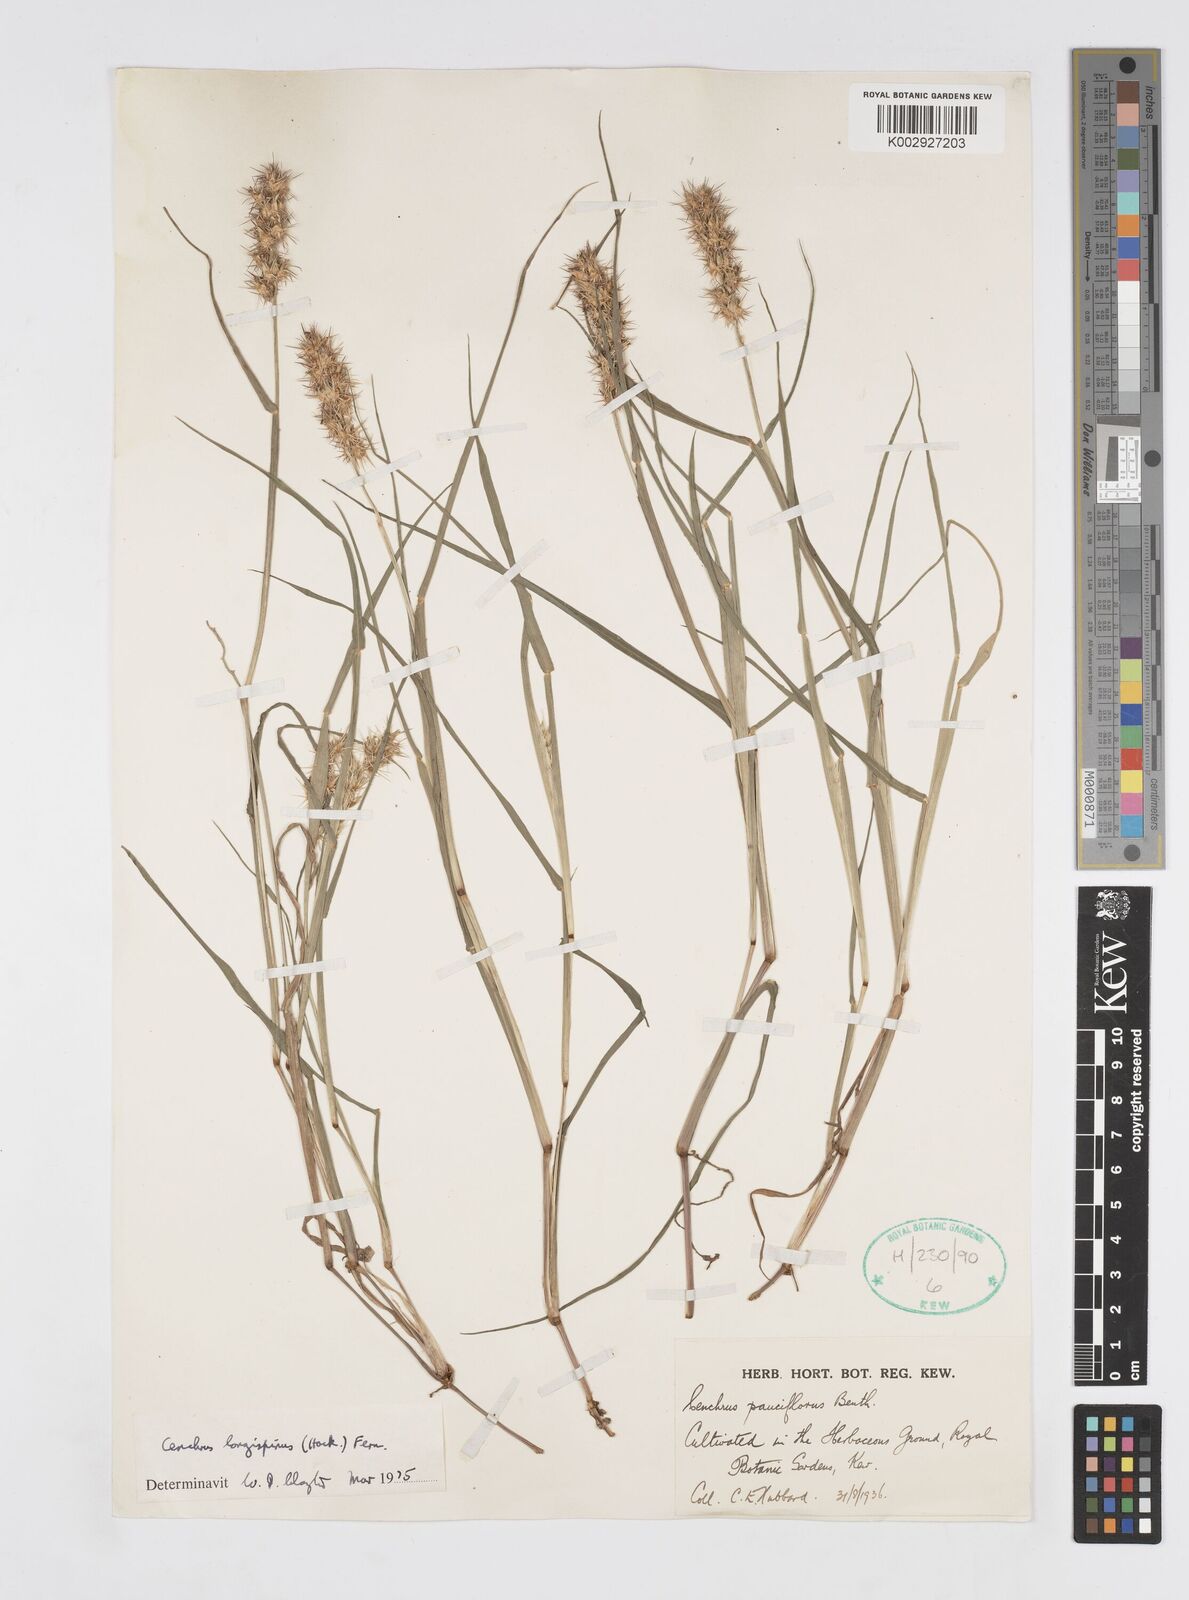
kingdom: Plantae
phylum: Tracheophyta
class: Liliopsida
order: Poales
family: Poaceae
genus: Cenchrus
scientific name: Cenchrus longispinus
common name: Mat sandbur
